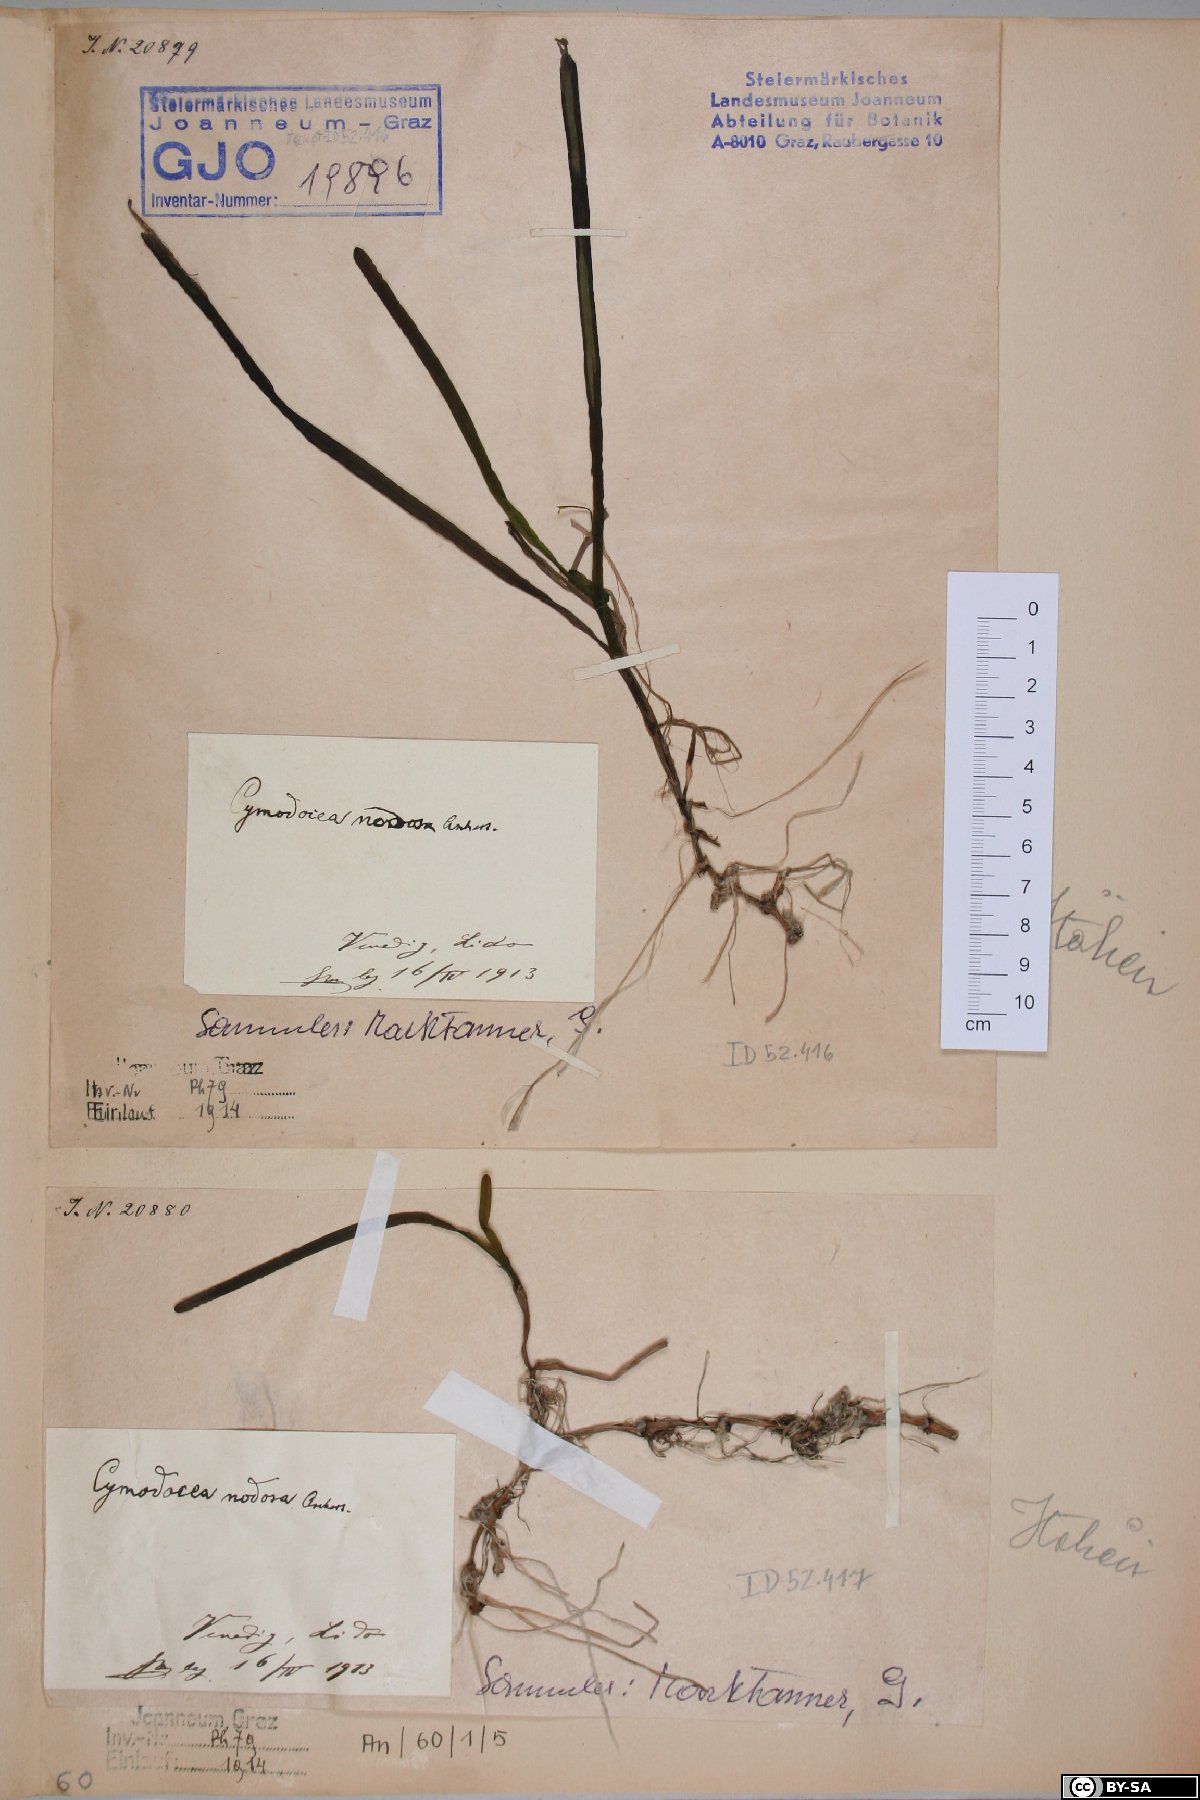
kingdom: Plantae
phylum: Tracheophyta
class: Liliopsida
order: Alismatales
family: Cymodoceaceae
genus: Cymodocea
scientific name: Cymodocea nodosa
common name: Slender seagrass
